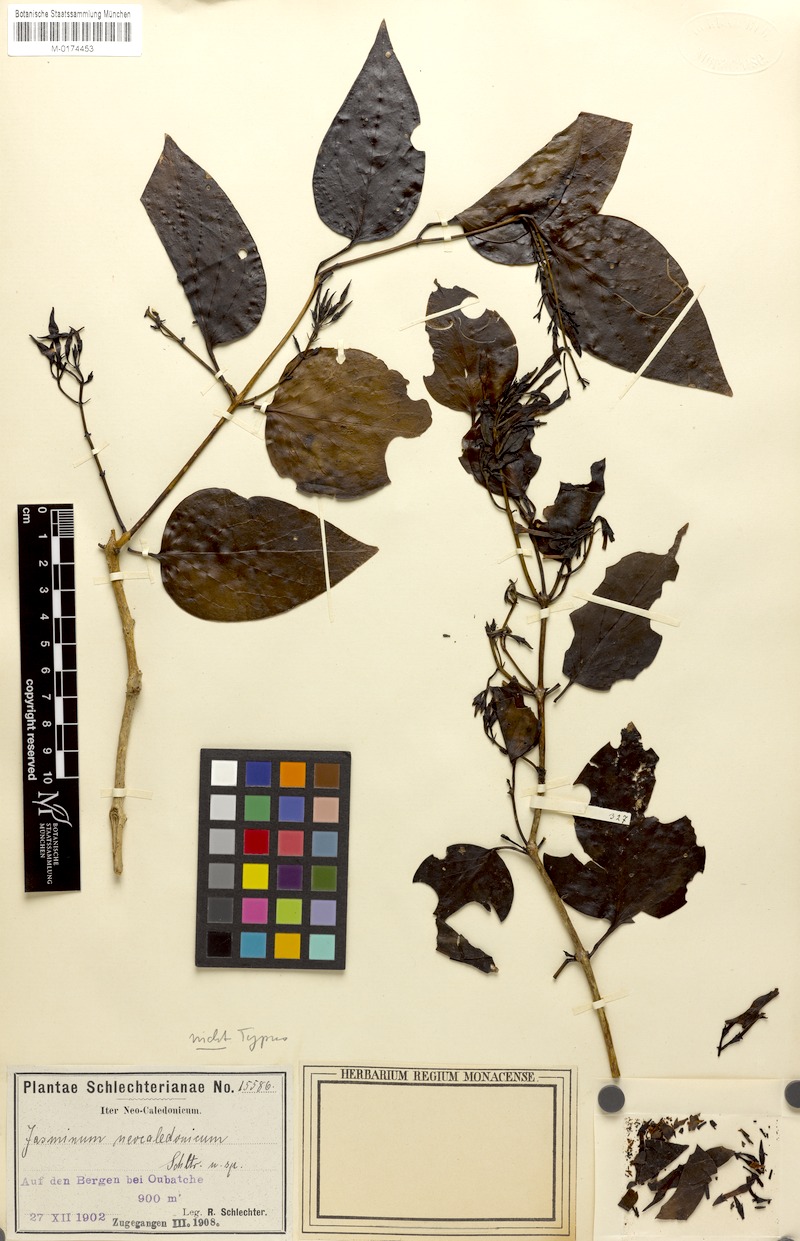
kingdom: Plantae
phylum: Tracheophyta
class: Magnoliopsida
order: Lamiales
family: Oleaceae
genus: Jasminum
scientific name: Jasminum neocaledonicum
